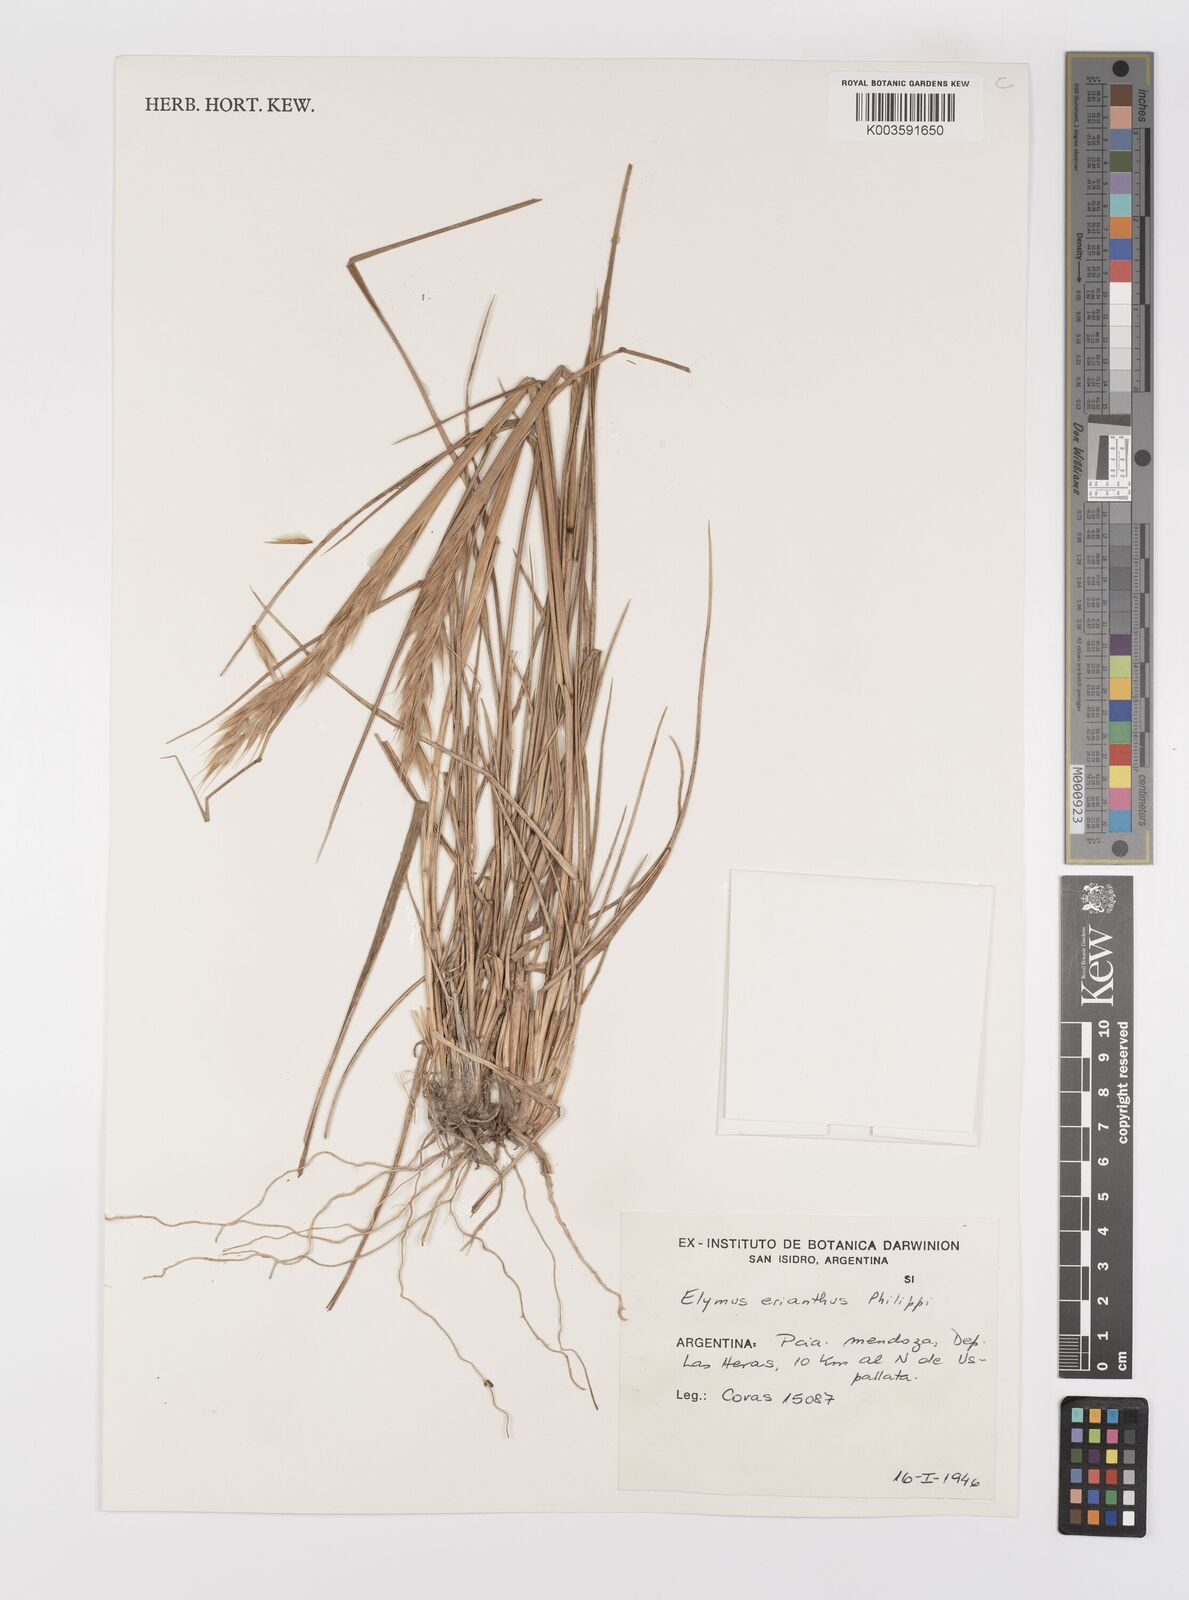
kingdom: Plantae
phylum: Tracheophyta
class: Liliopsida
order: Poales
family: Poaceae
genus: Leymus
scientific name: Leymus erianthus
